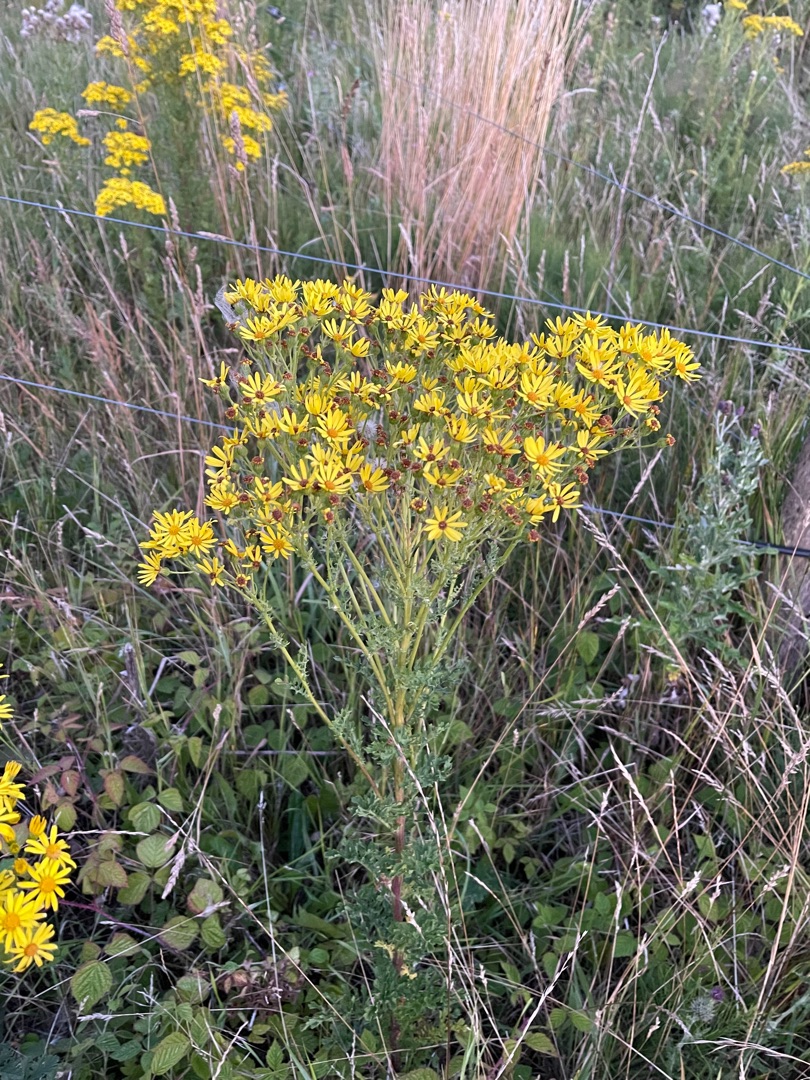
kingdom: Plantae
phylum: Tracheophyta
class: Magnoliopsida
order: Asterales
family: Asteraceae
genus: Jacobaea
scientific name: Jacobaea vulgaris
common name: Eng-brandbæger
